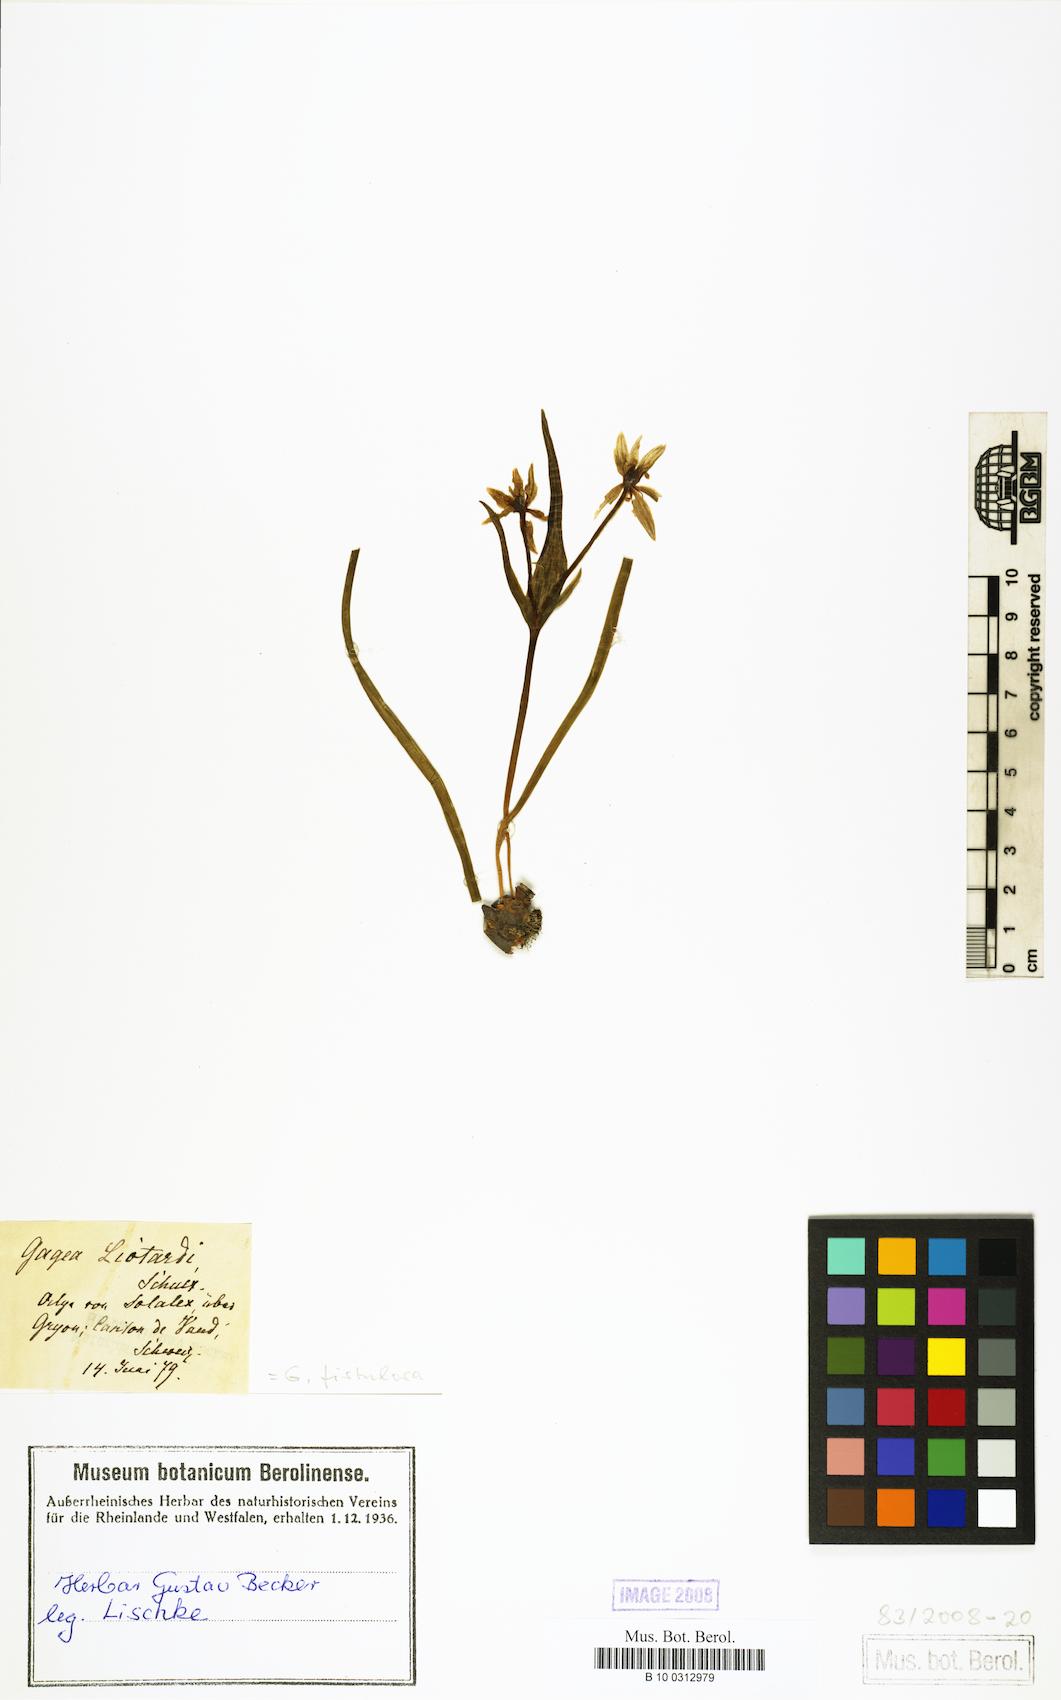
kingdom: Plantae
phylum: Tracheophyta
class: Liliopsida
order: Liliales
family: Liliaceae
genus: Gagea
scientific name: Gagea
